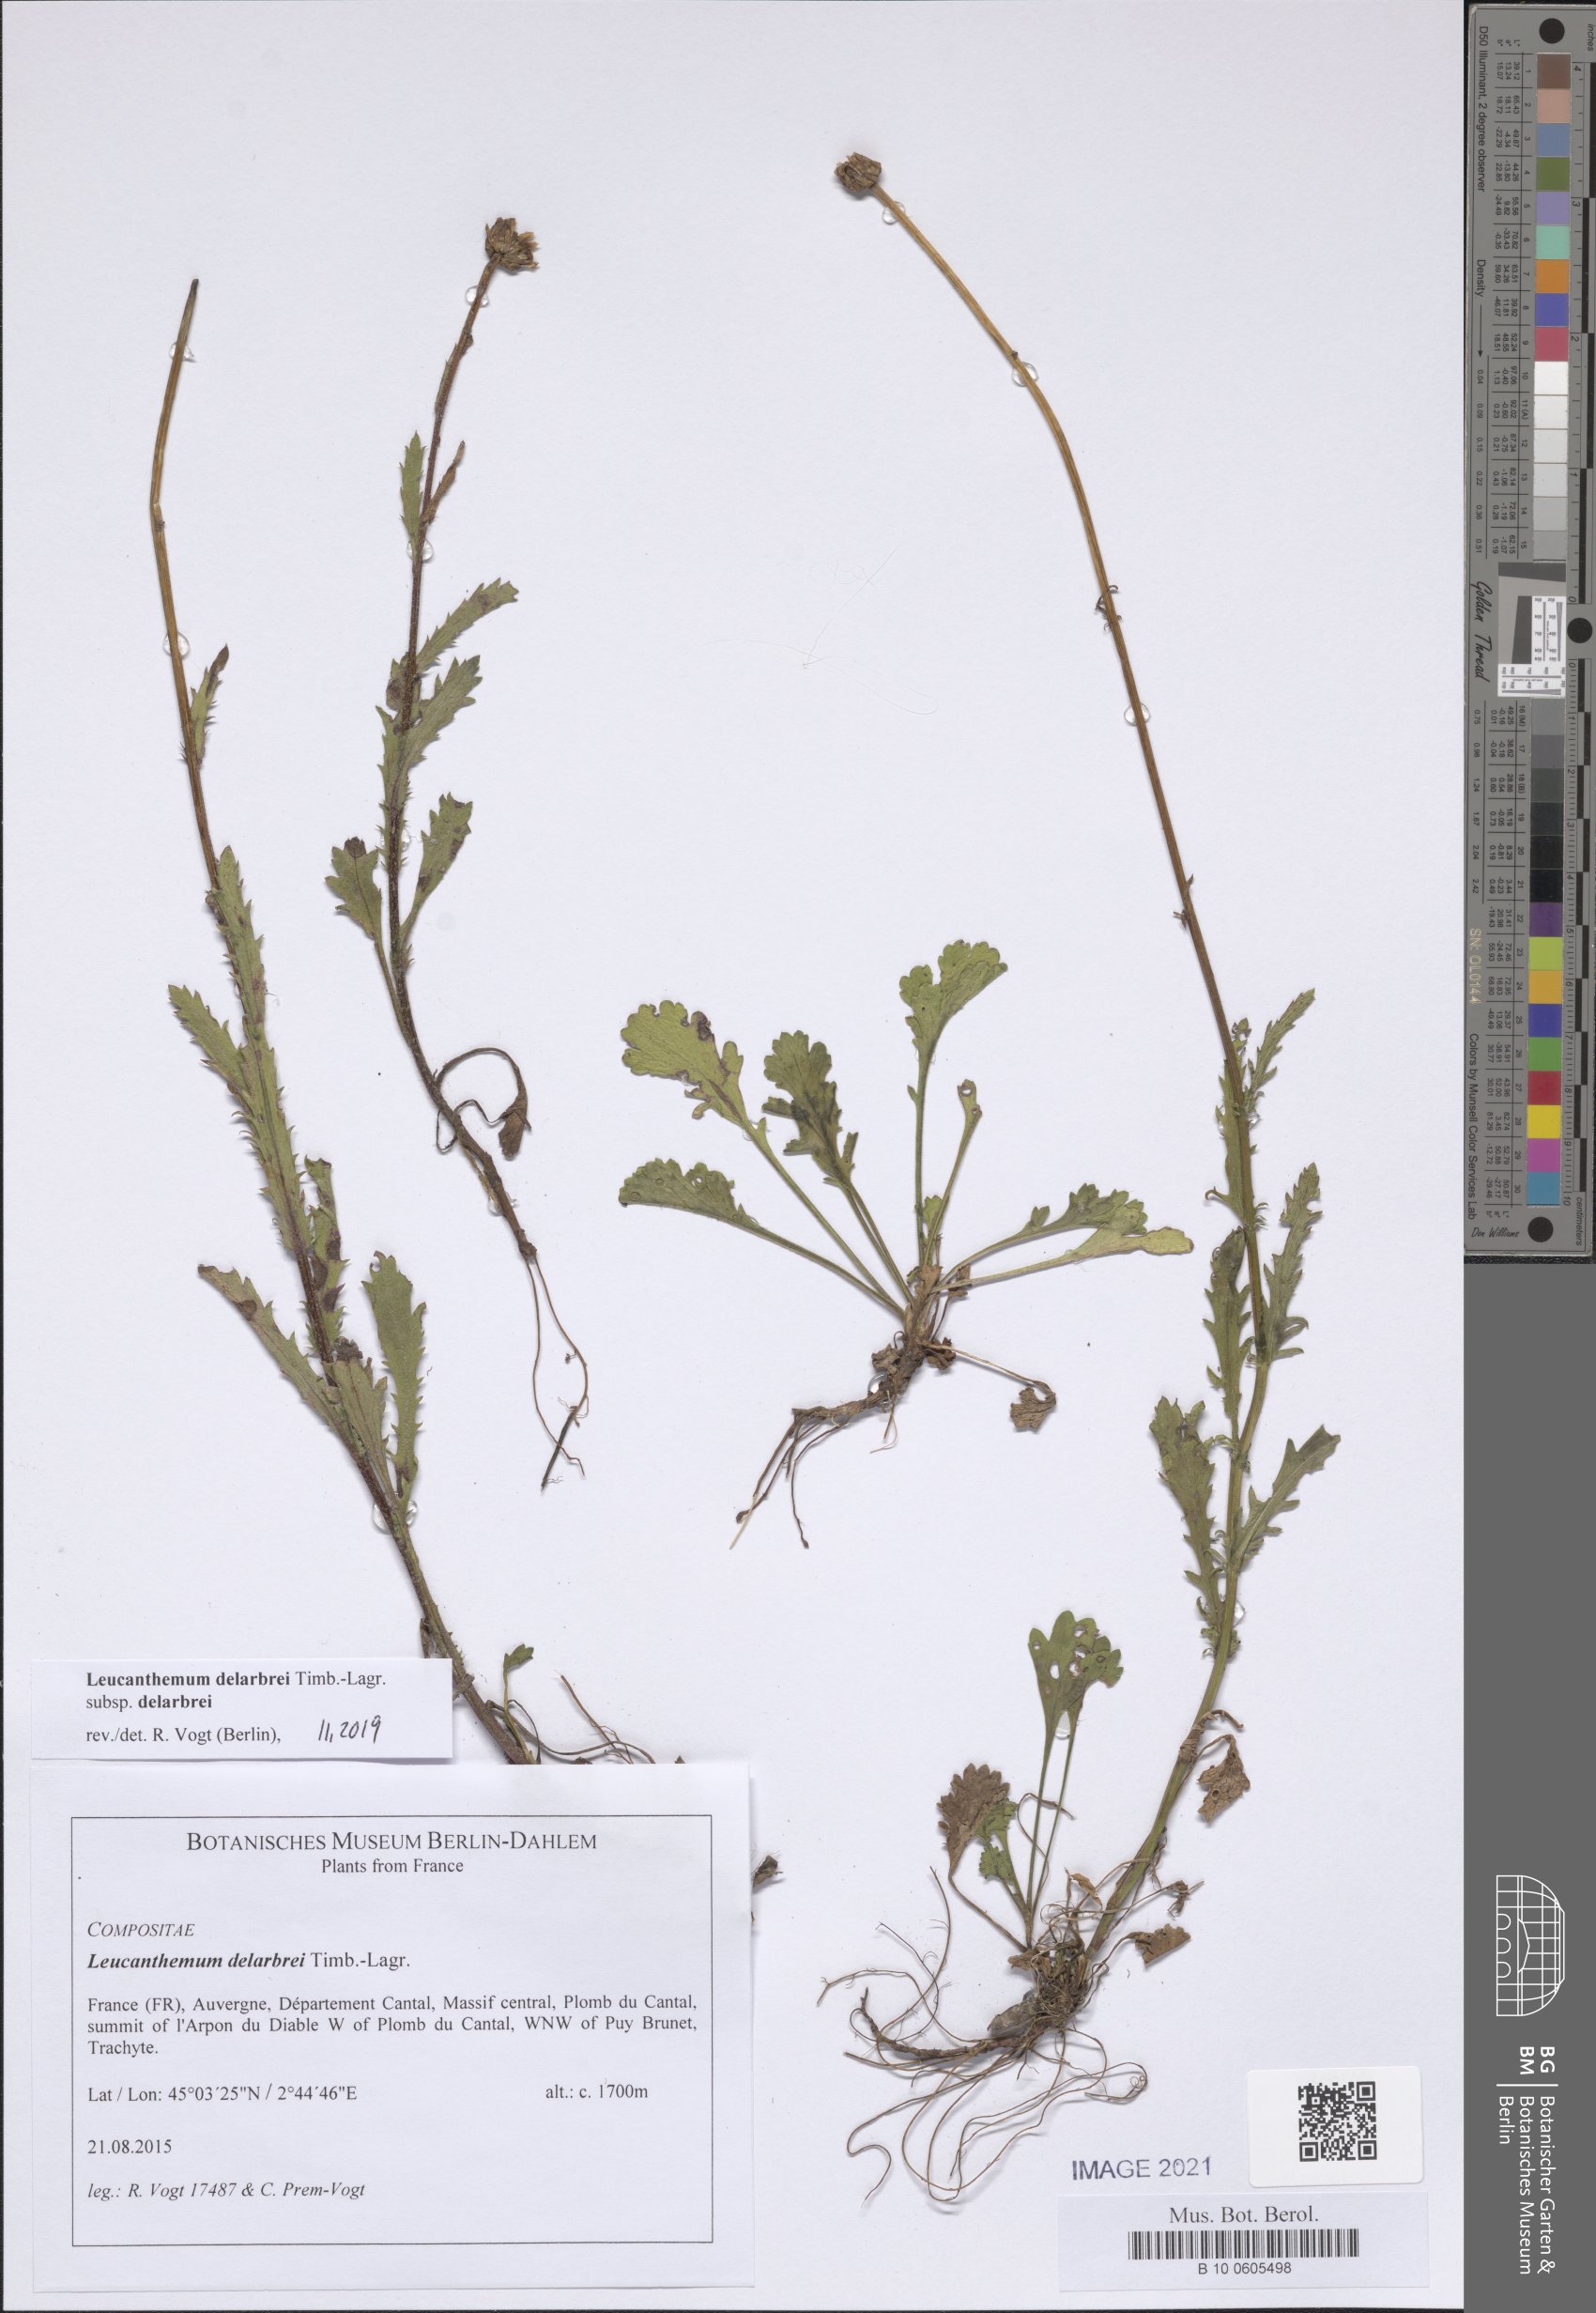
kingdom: Plantae
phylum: Tracheophyta
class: Magnoliopsida
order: Asterales
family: Asteraceae
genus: Leucanthemum
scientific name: Leucanthemum delarbrei
